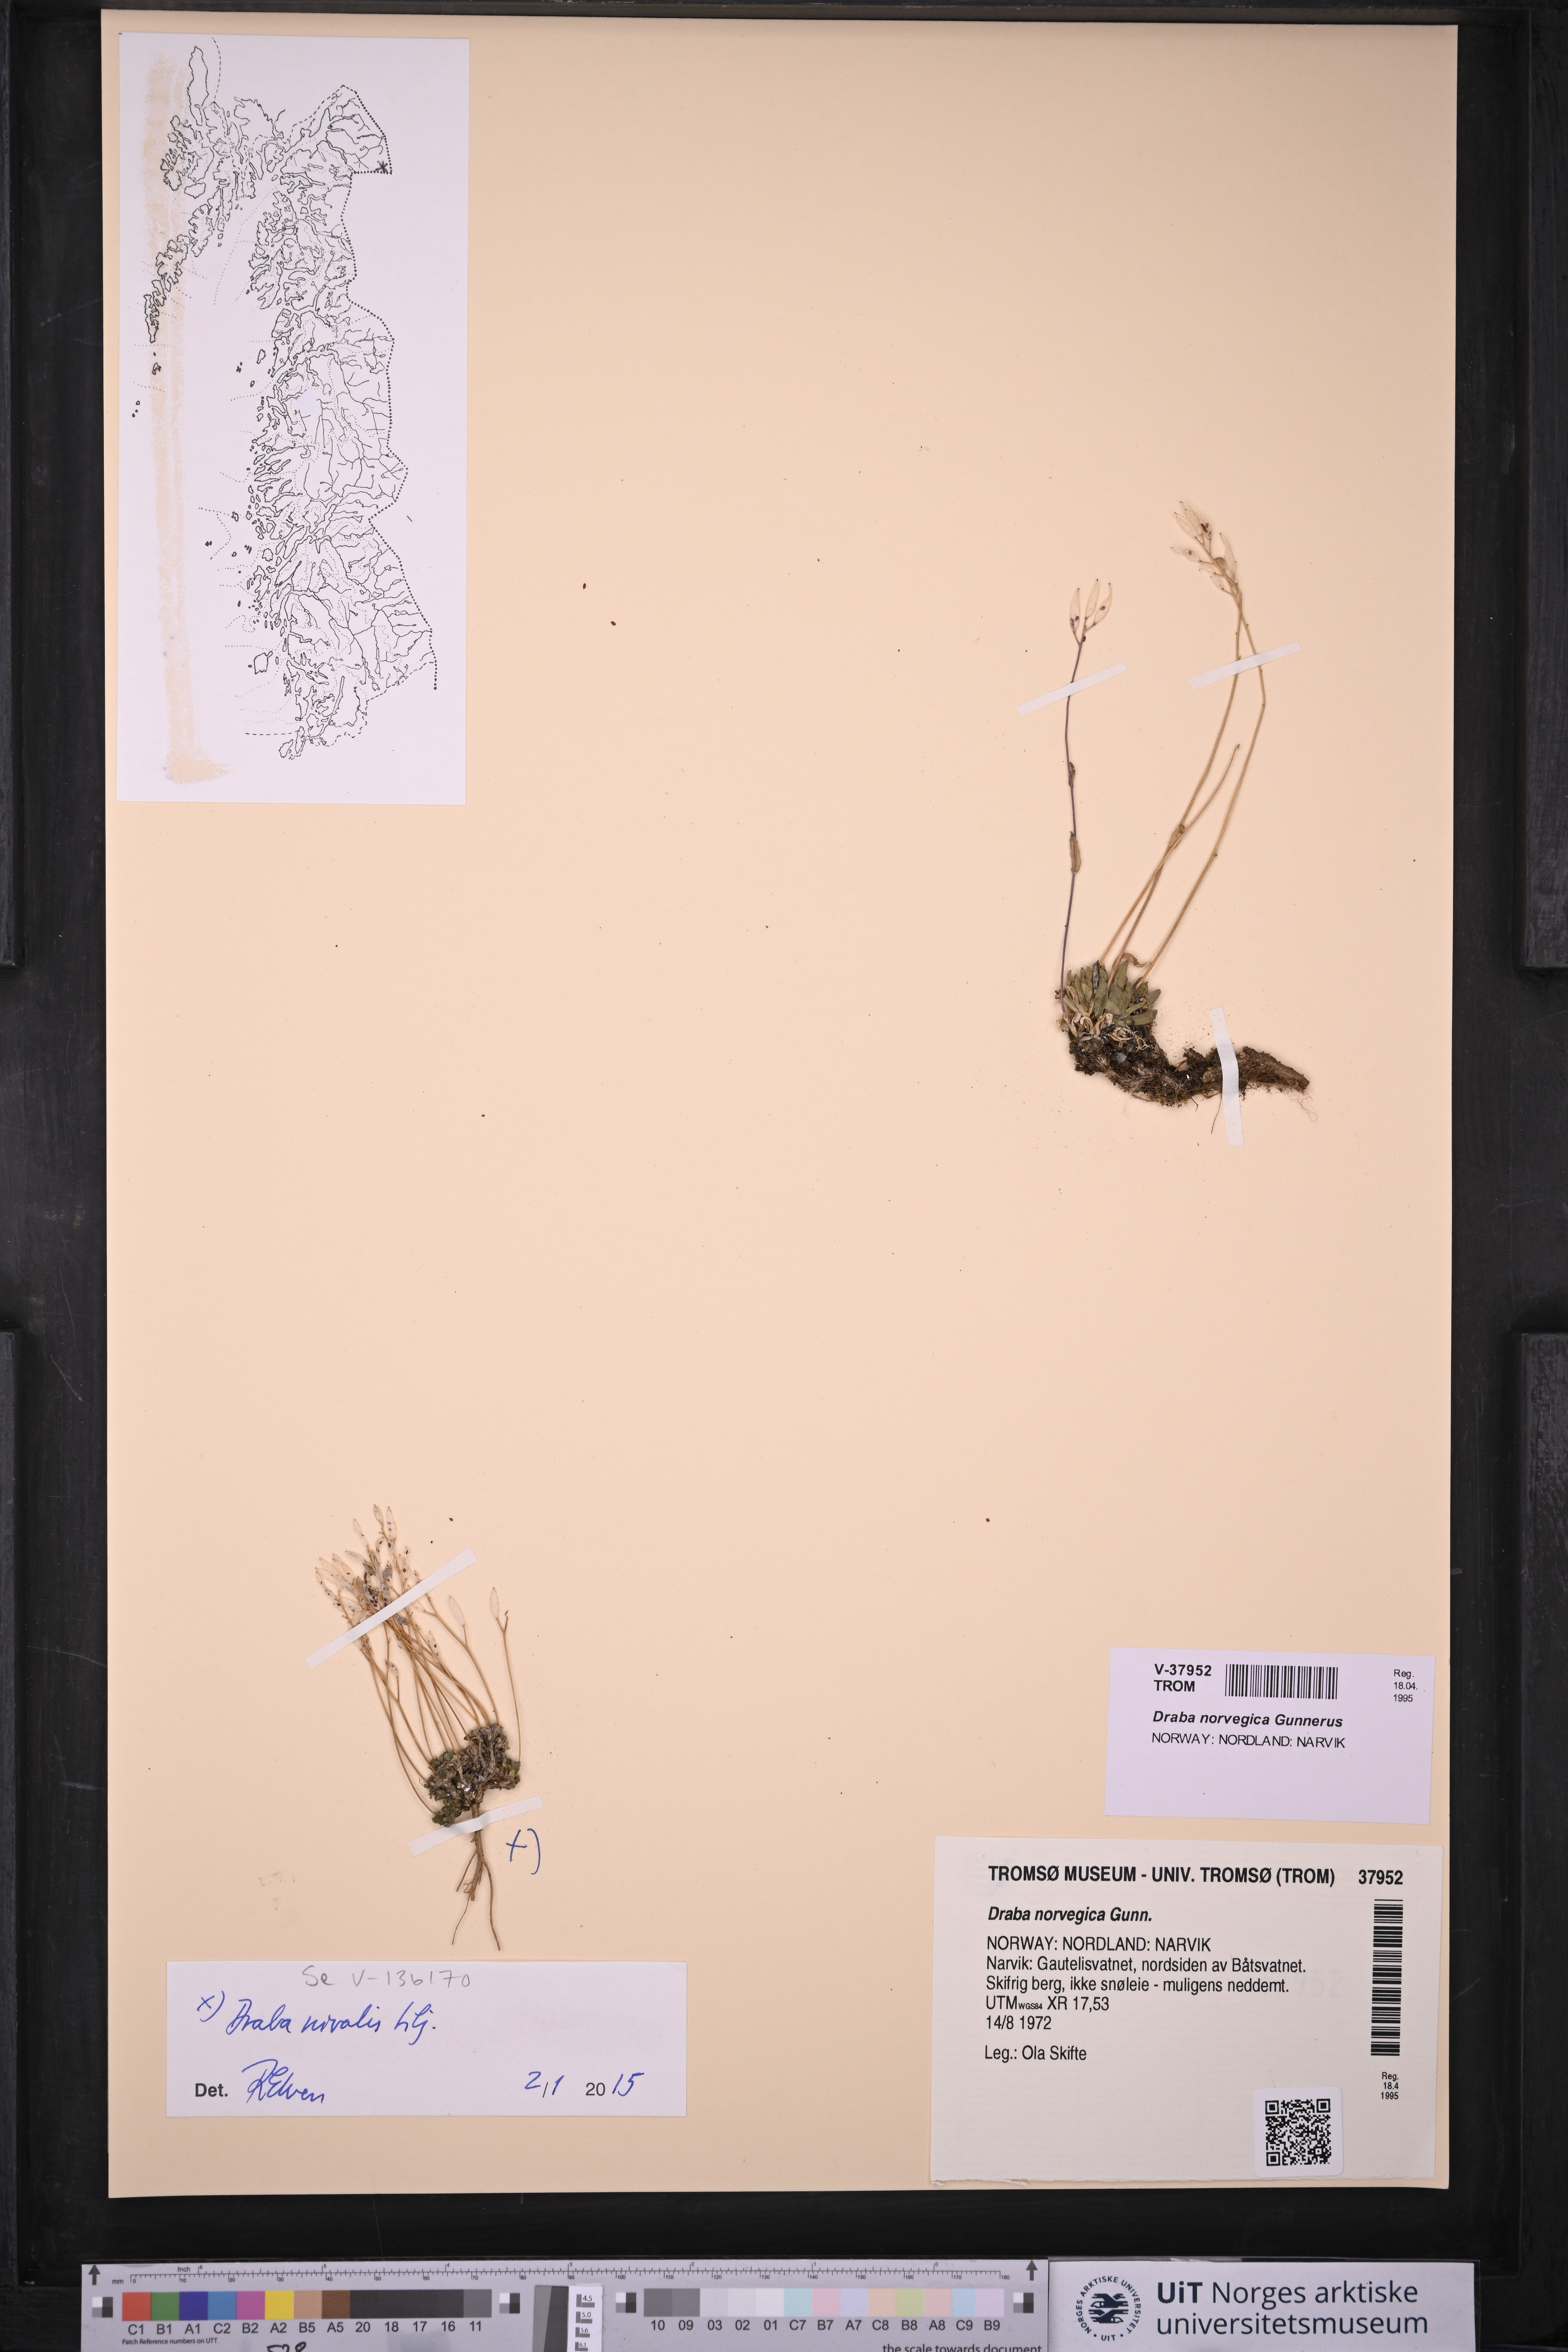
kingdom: Plantae
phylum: Tracheophyta
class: Magnoliopsida
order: Brassicales
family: Brassicaceae
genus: Draba
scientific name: Draba norvegica
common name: Rock whitlowgrass
